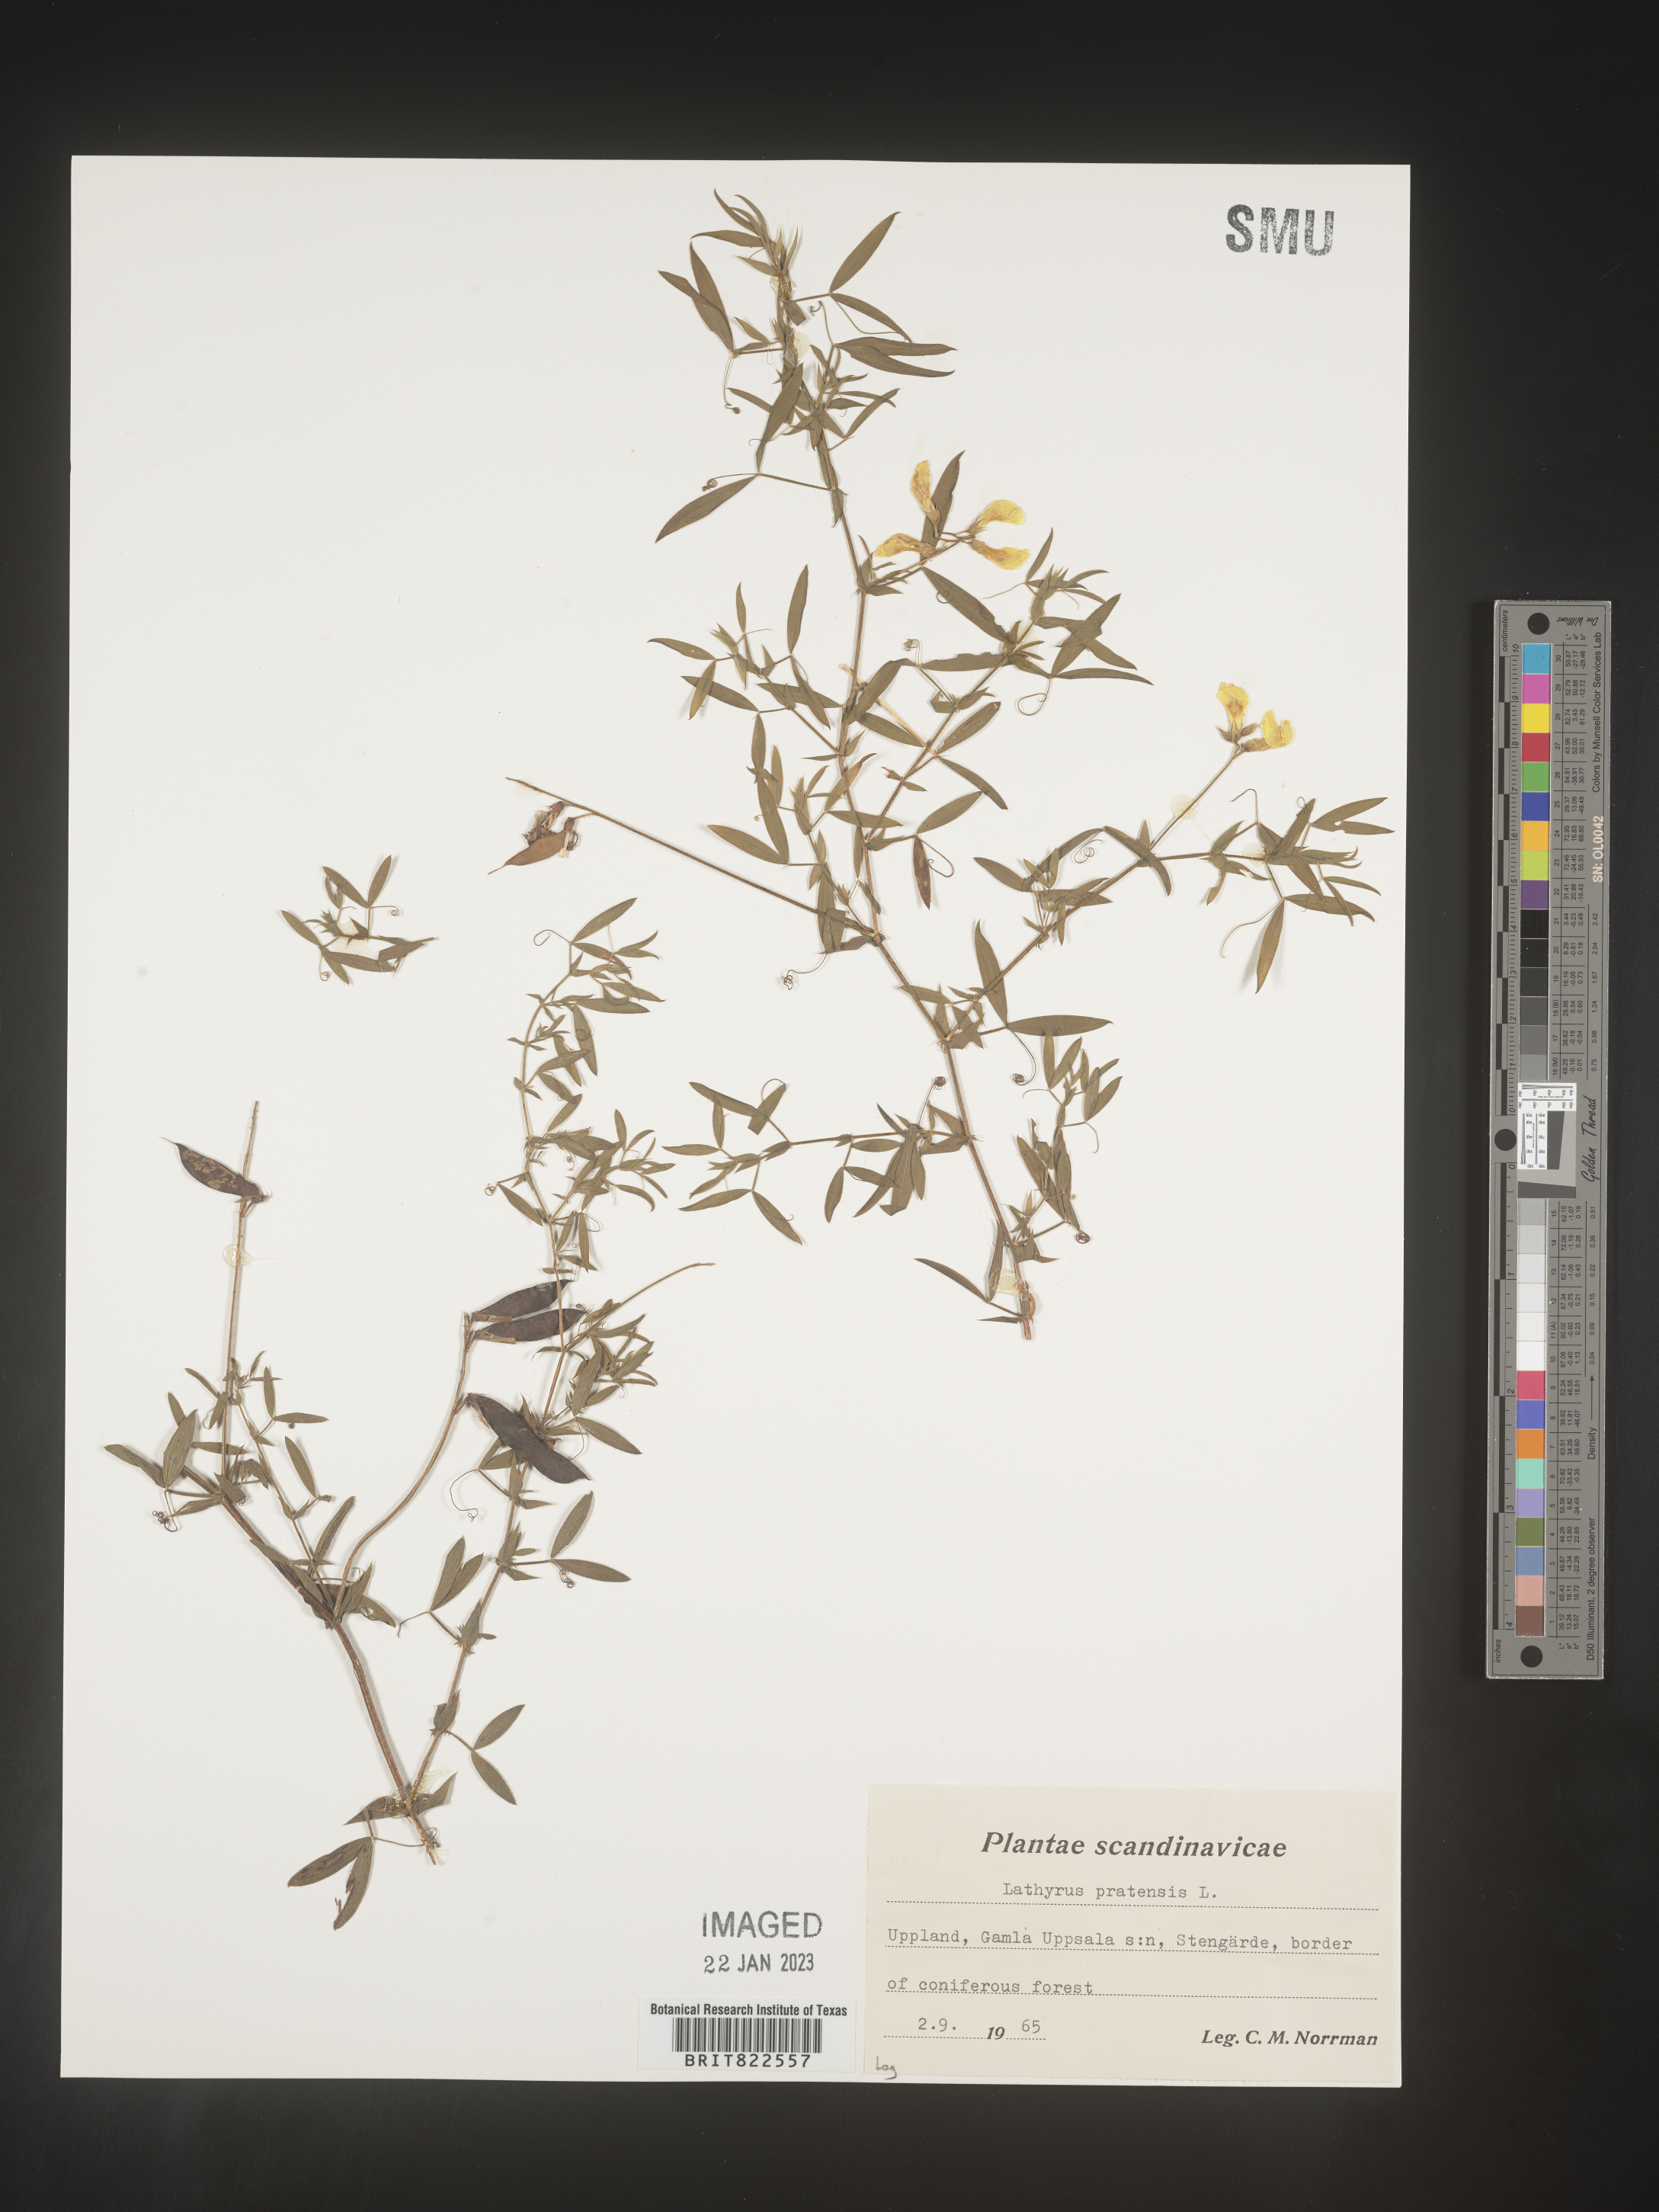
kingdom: Plantae
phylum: Tracheophyta
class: Magnoliopsida
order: Fabales
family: Fabaceae
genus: Lathyrus
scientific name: Lathyrus
